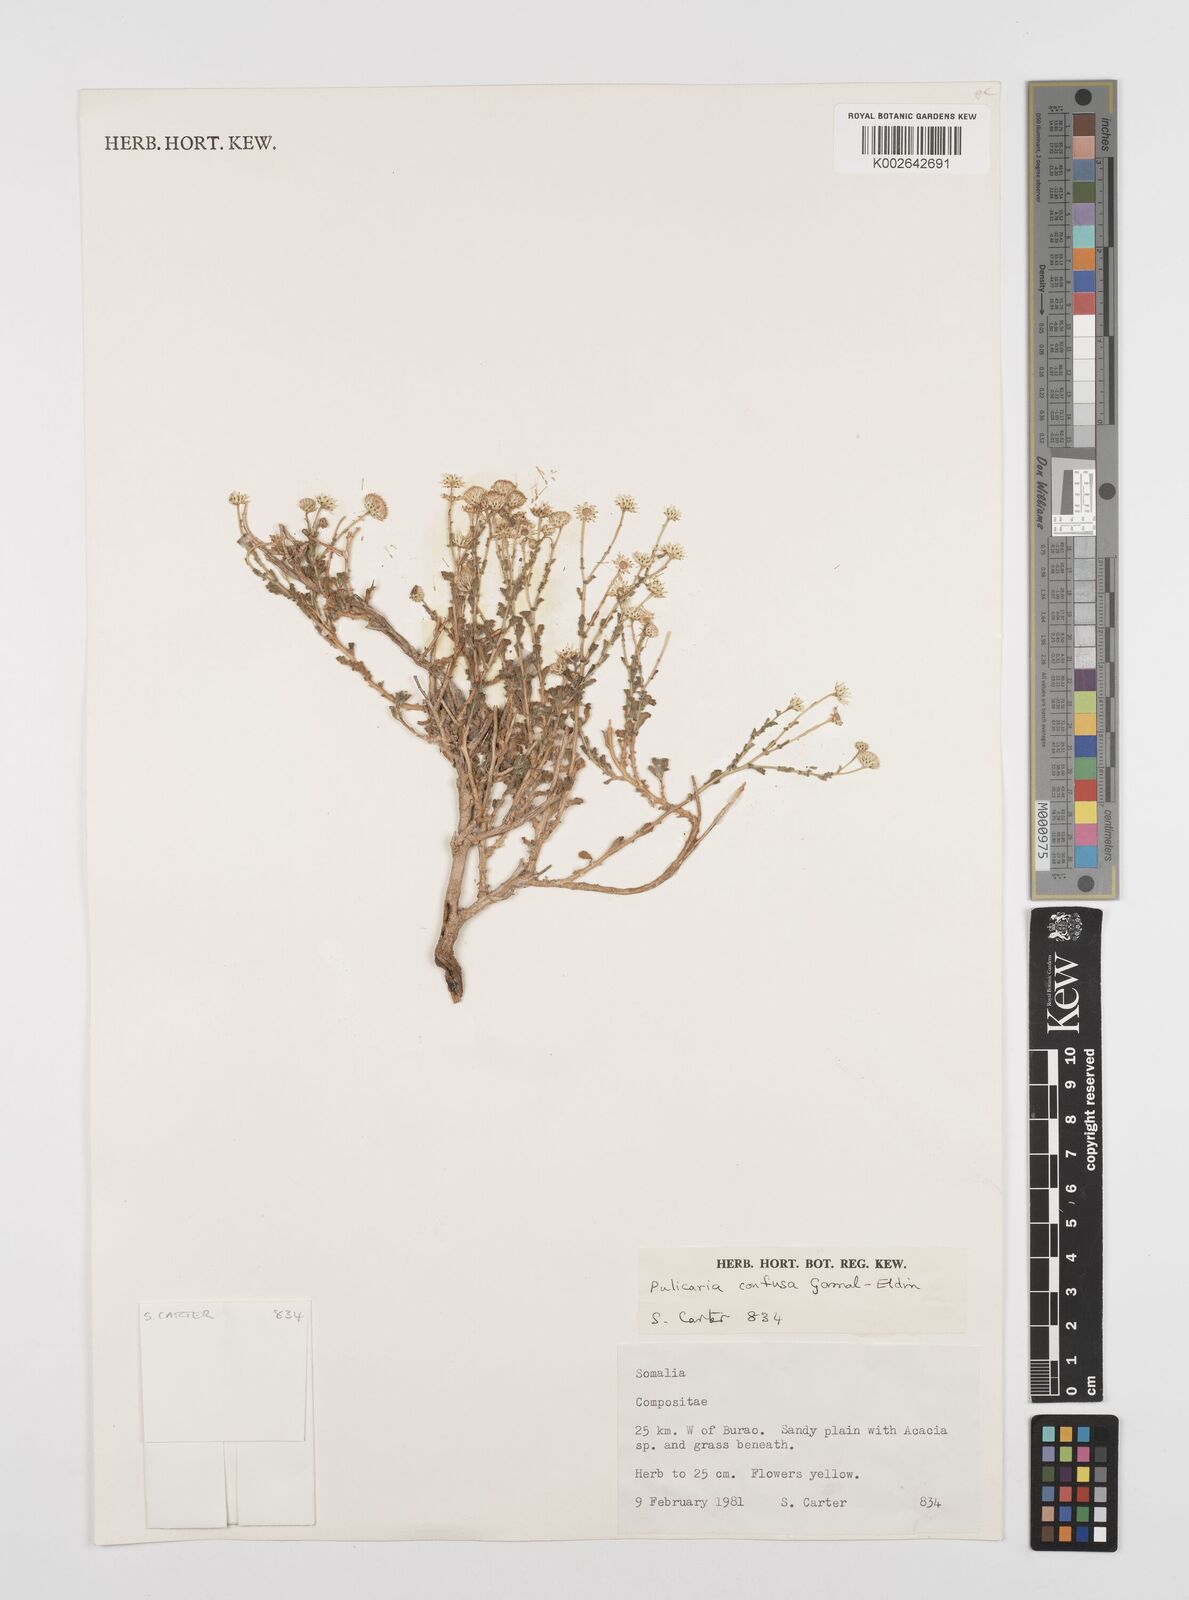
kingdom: Plantae
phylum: Tracheophyta
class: Magnoliopsida
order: Asterales
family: Asteraceae
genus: Pulicaria
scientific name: Pulicaria confusa
